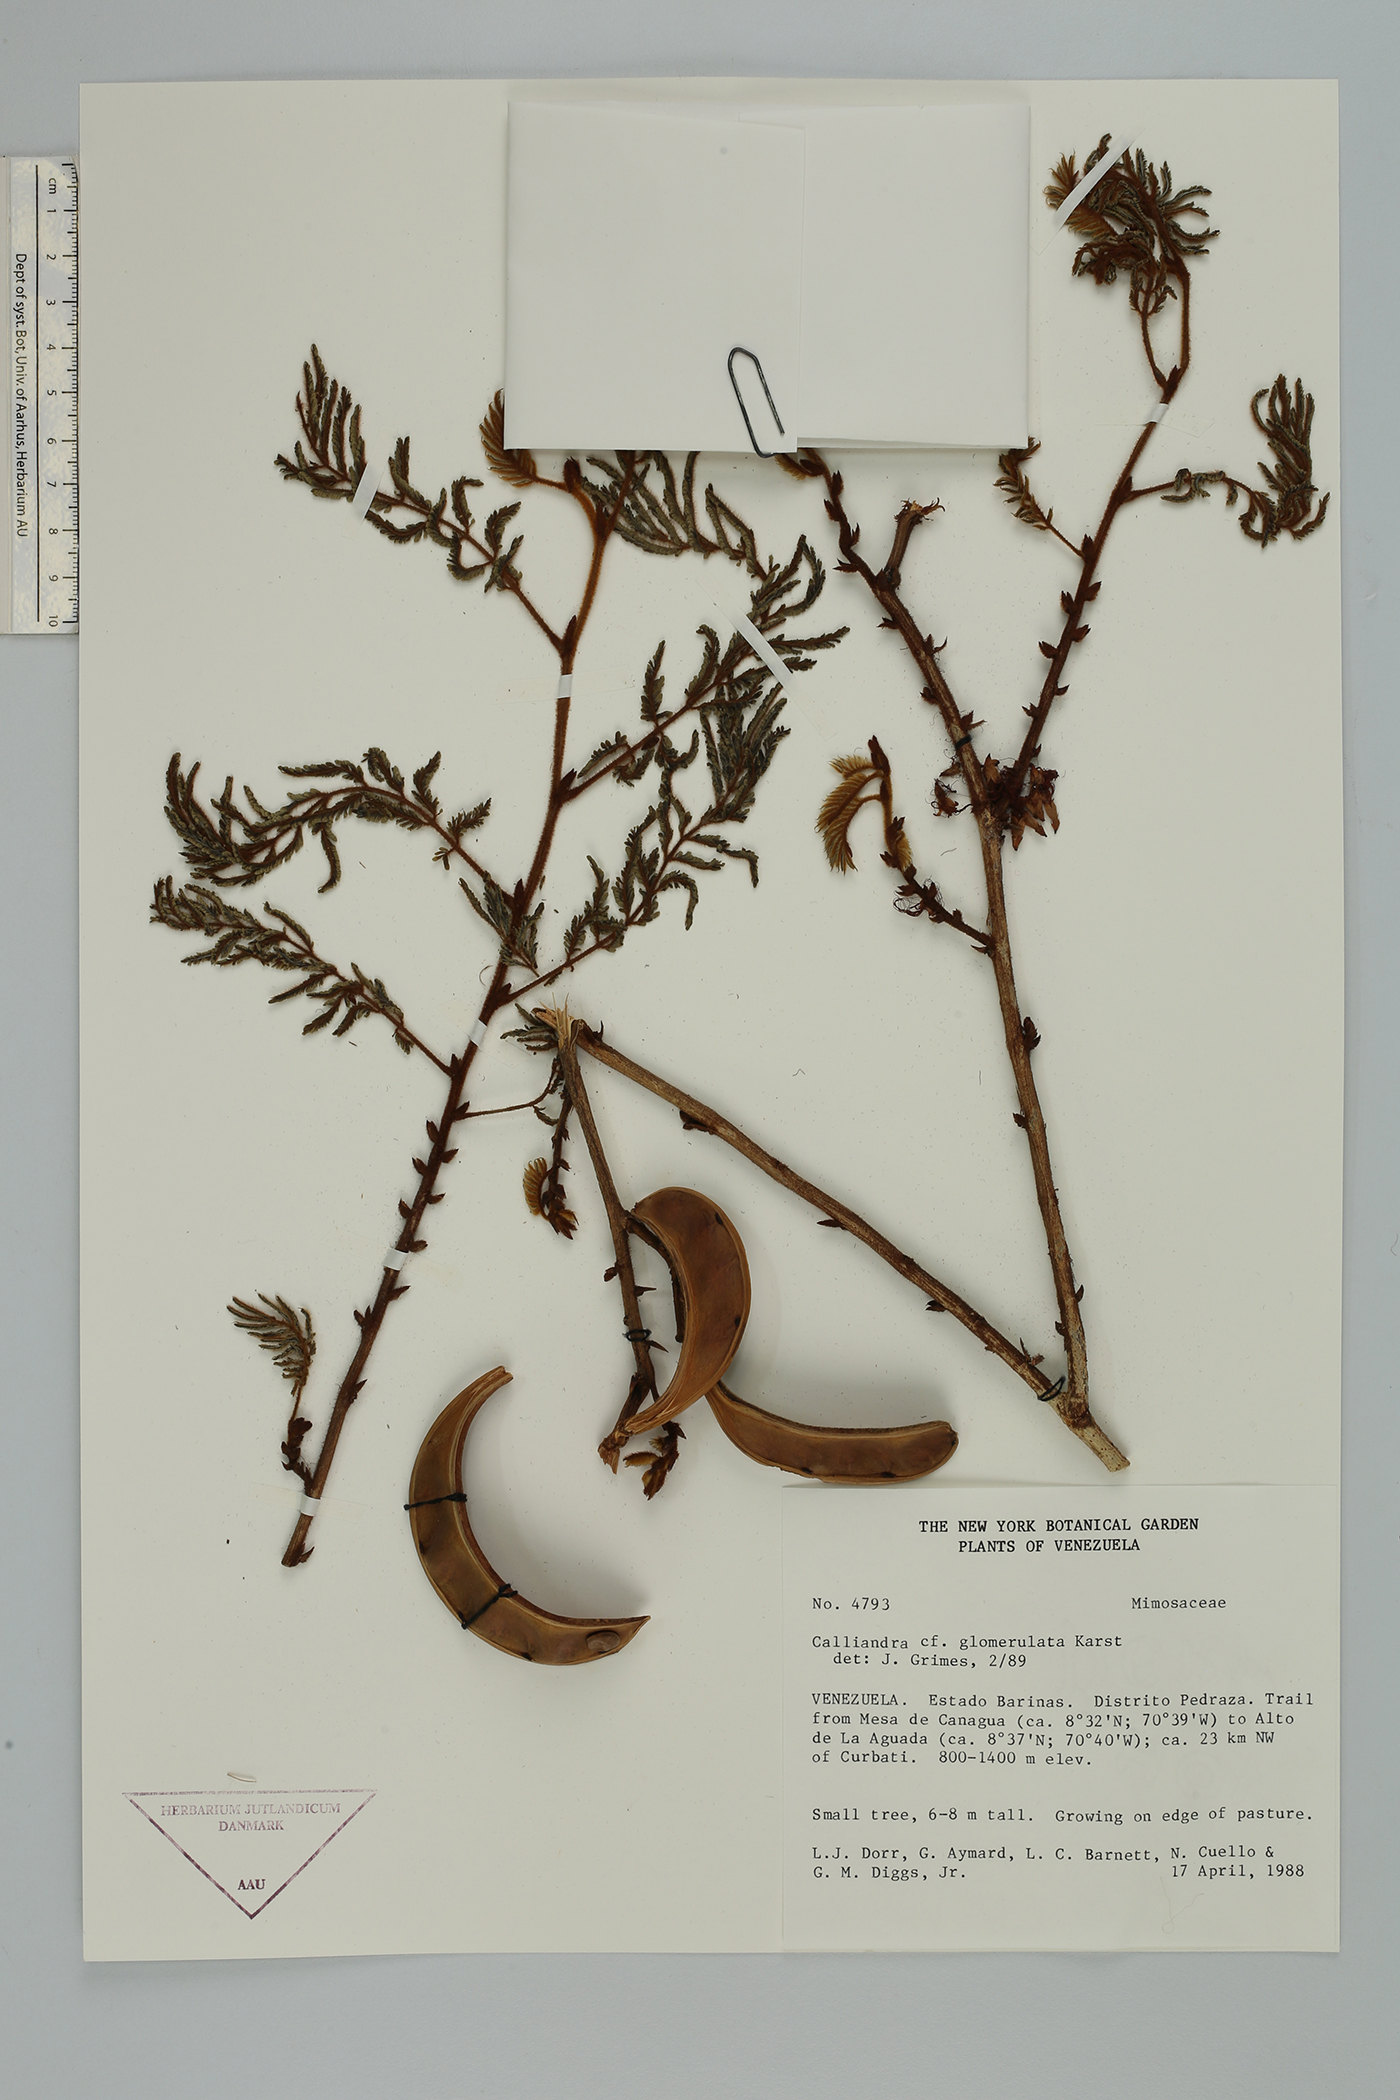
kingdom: Plantae
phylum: Tracheophyta
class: Magnoliopsida
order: Fabales
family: Fabaceae
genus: Calliandra
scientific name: Calliandra glomerulata
